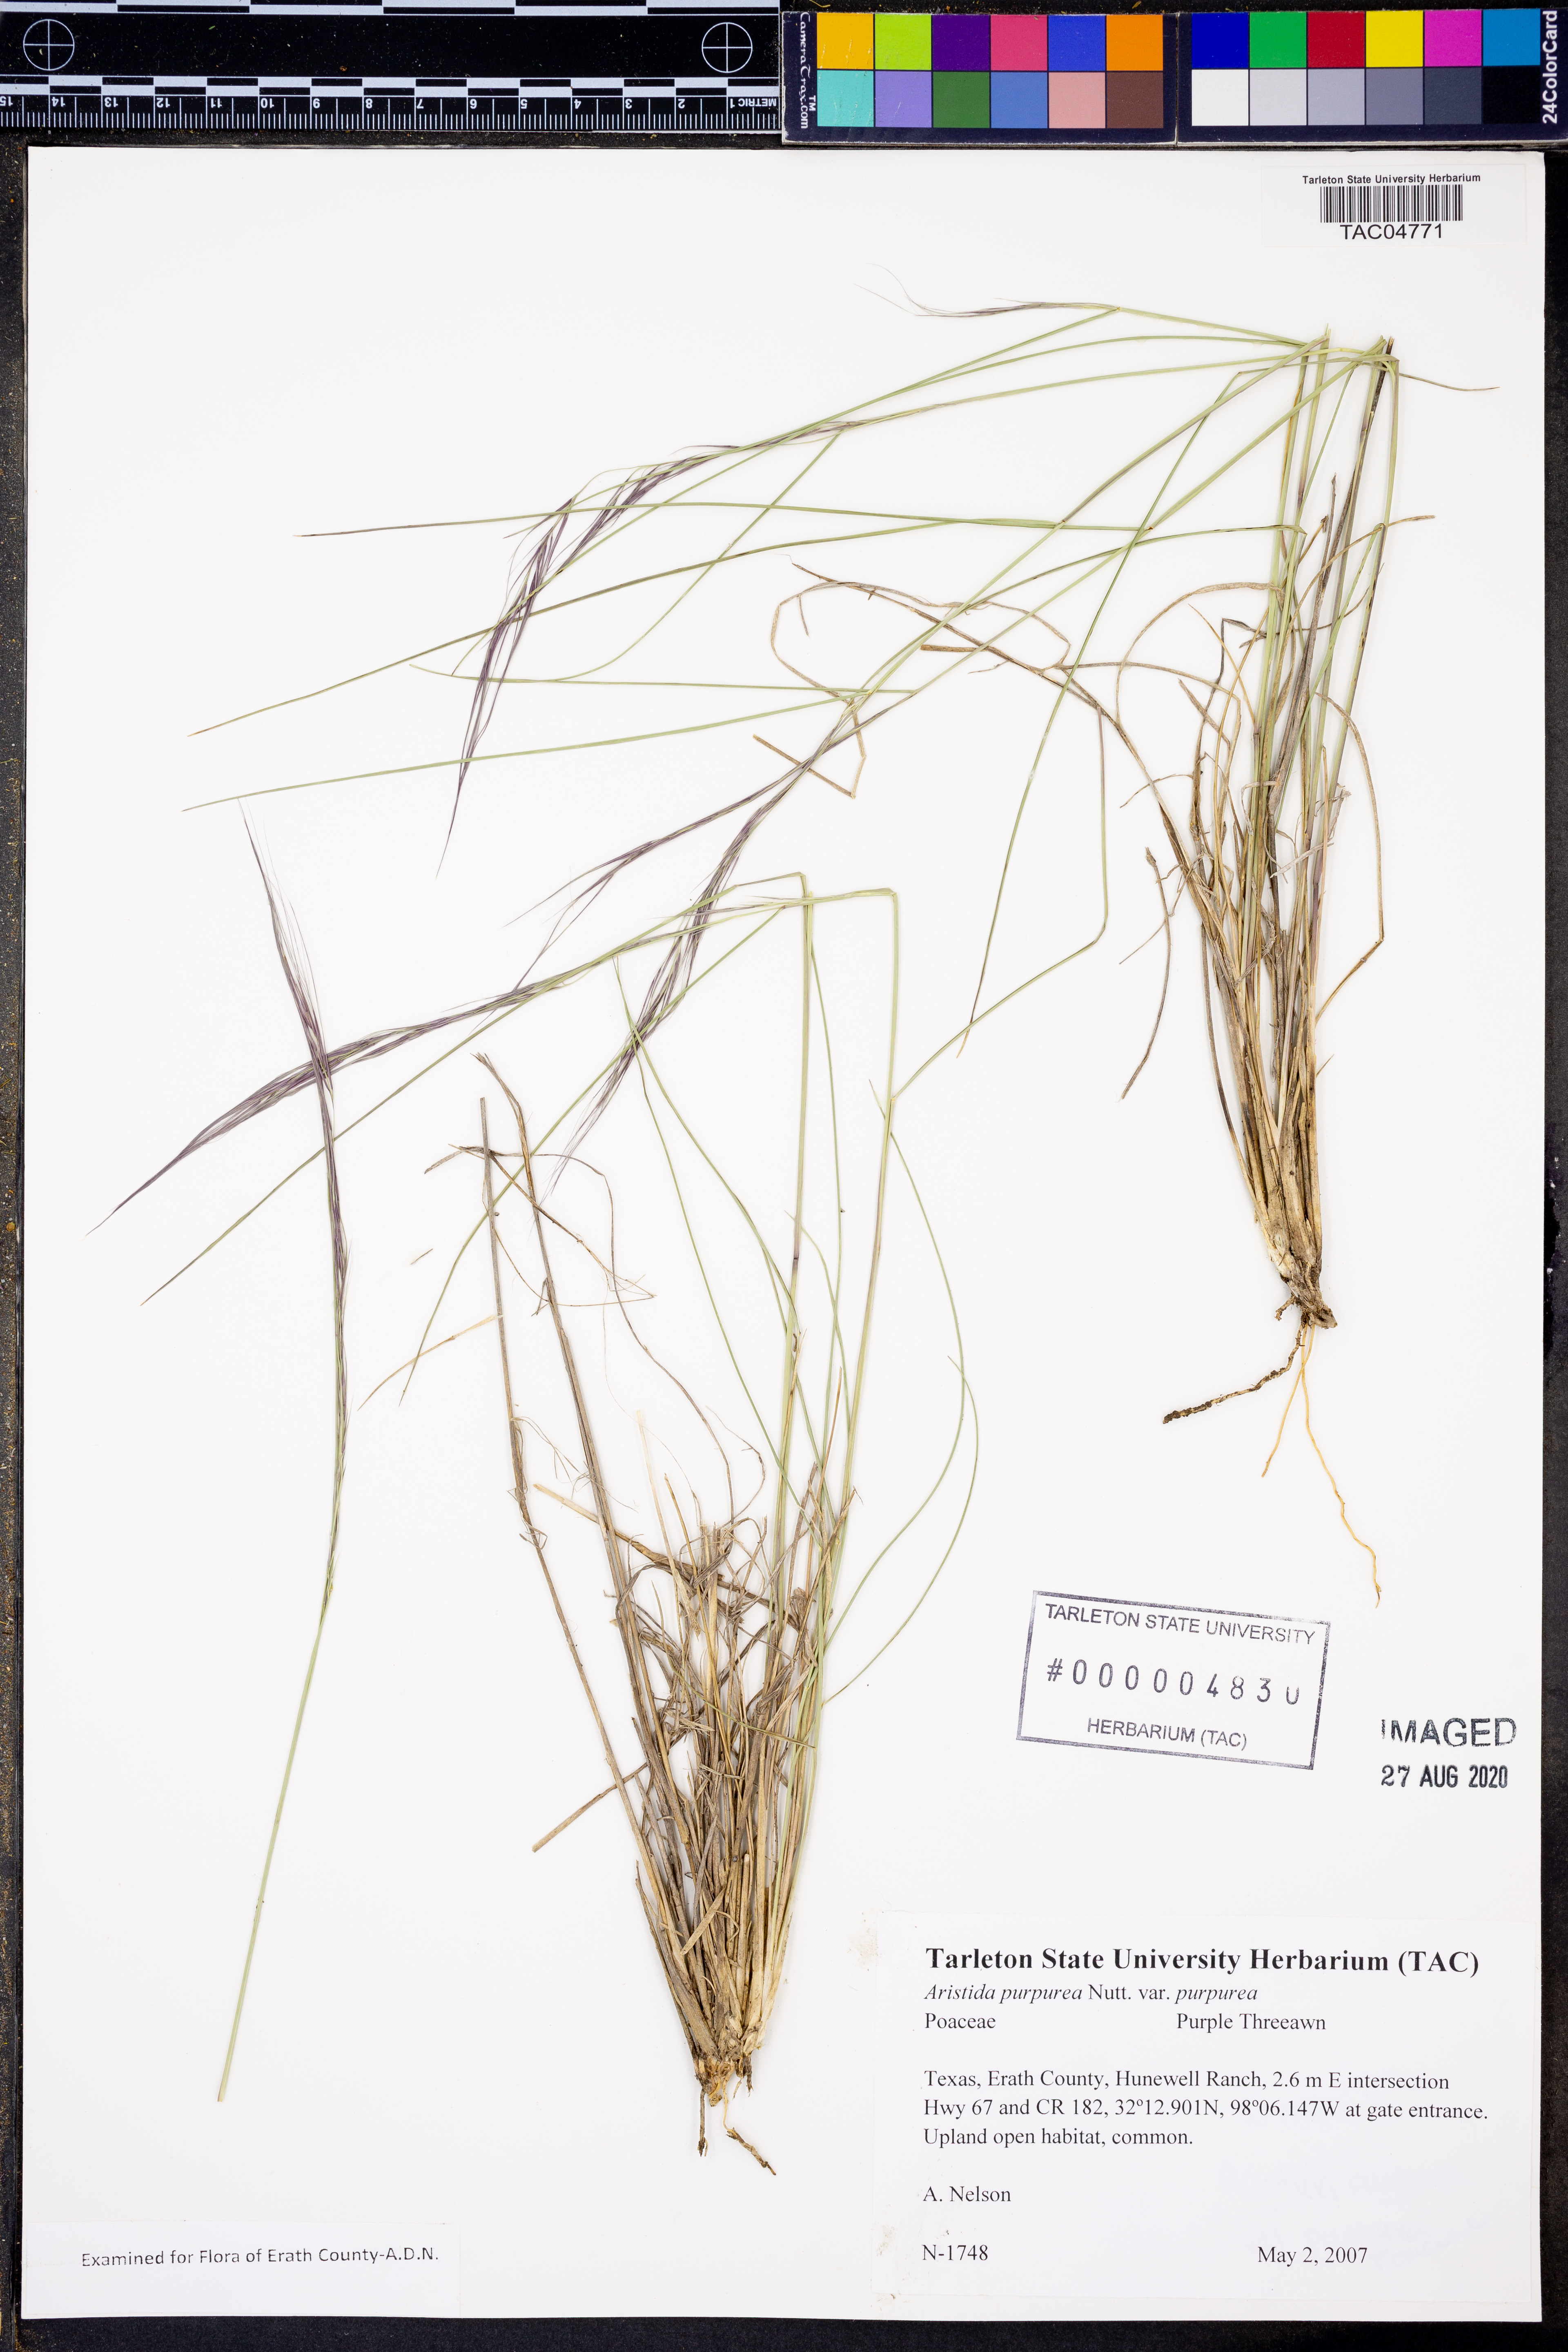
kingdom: Plantae
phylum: Tracheophyta
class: Liliopsida
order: Poales
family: Poaceae
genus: Aristida
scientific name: Aristida purpurea
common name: Purple threeawn
